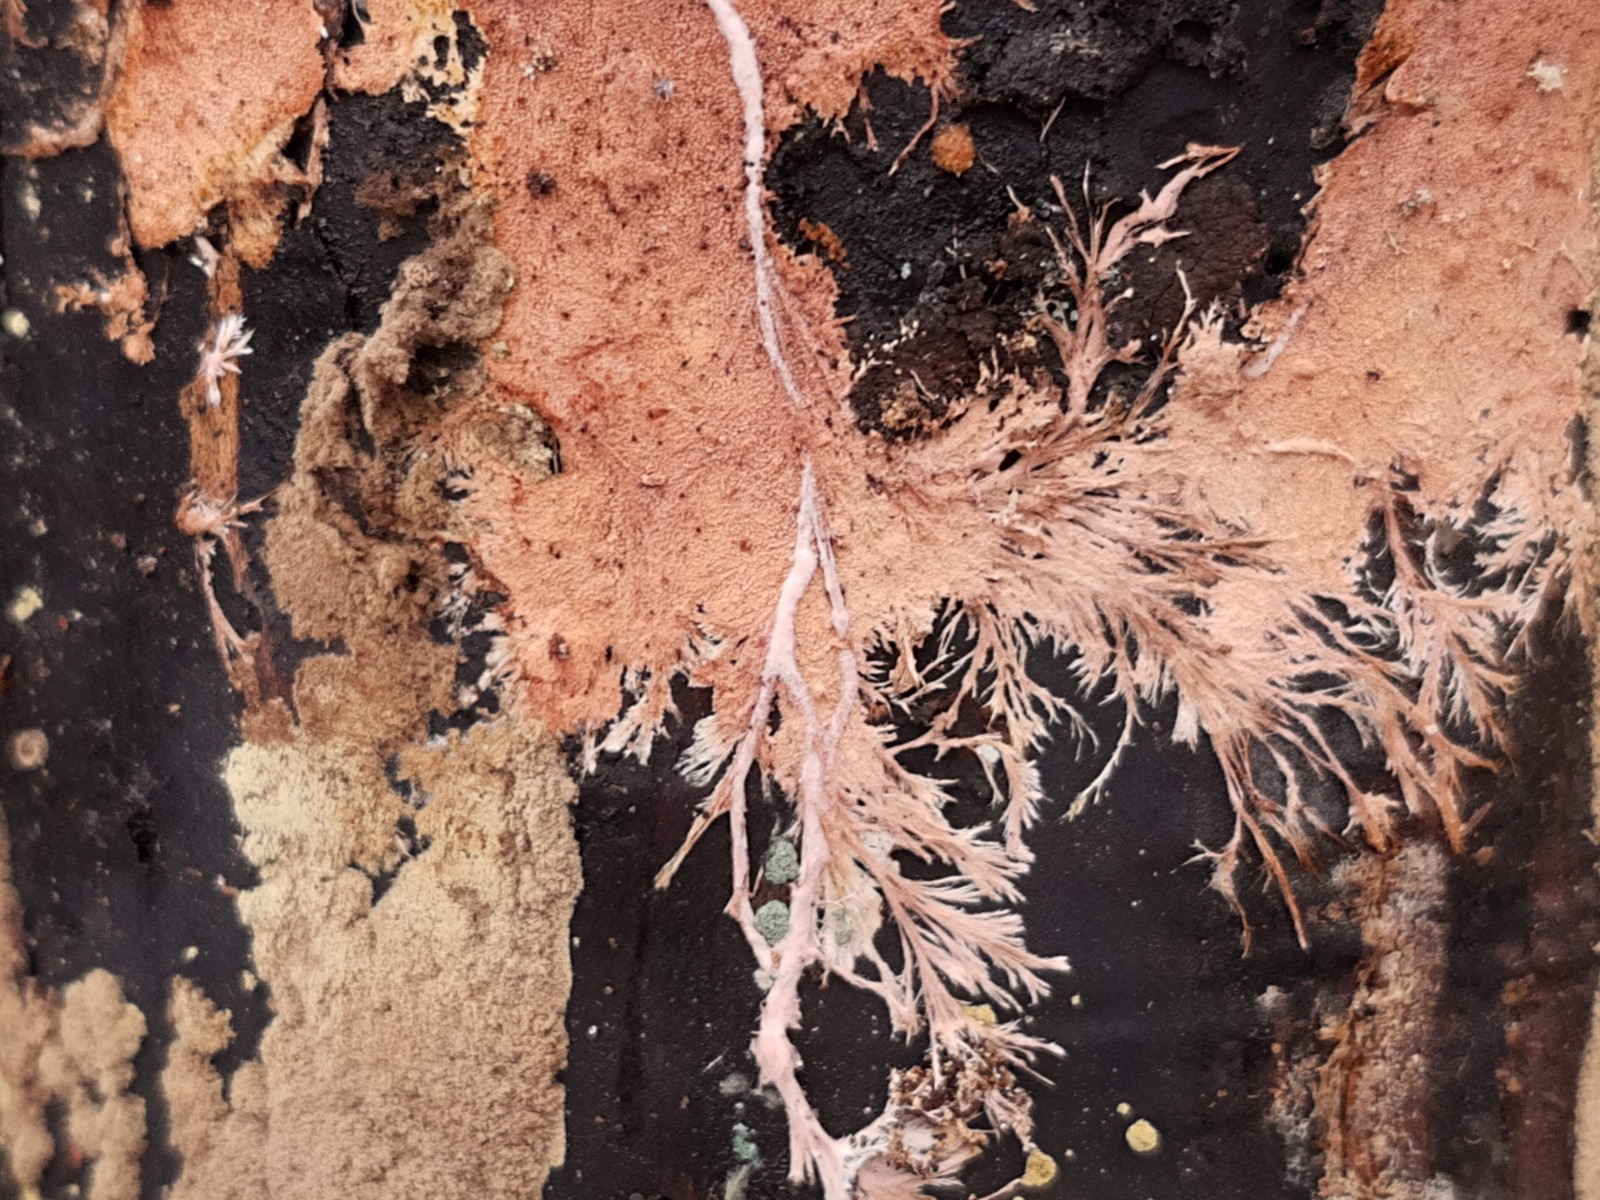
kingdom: Fungi
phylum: Basidiomycota
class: Agaricomycetes
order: Polyporales
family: Steccherinaceae
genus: Steccherinum
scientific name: Steccherinum fimbriatum
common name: trådet skønpig
